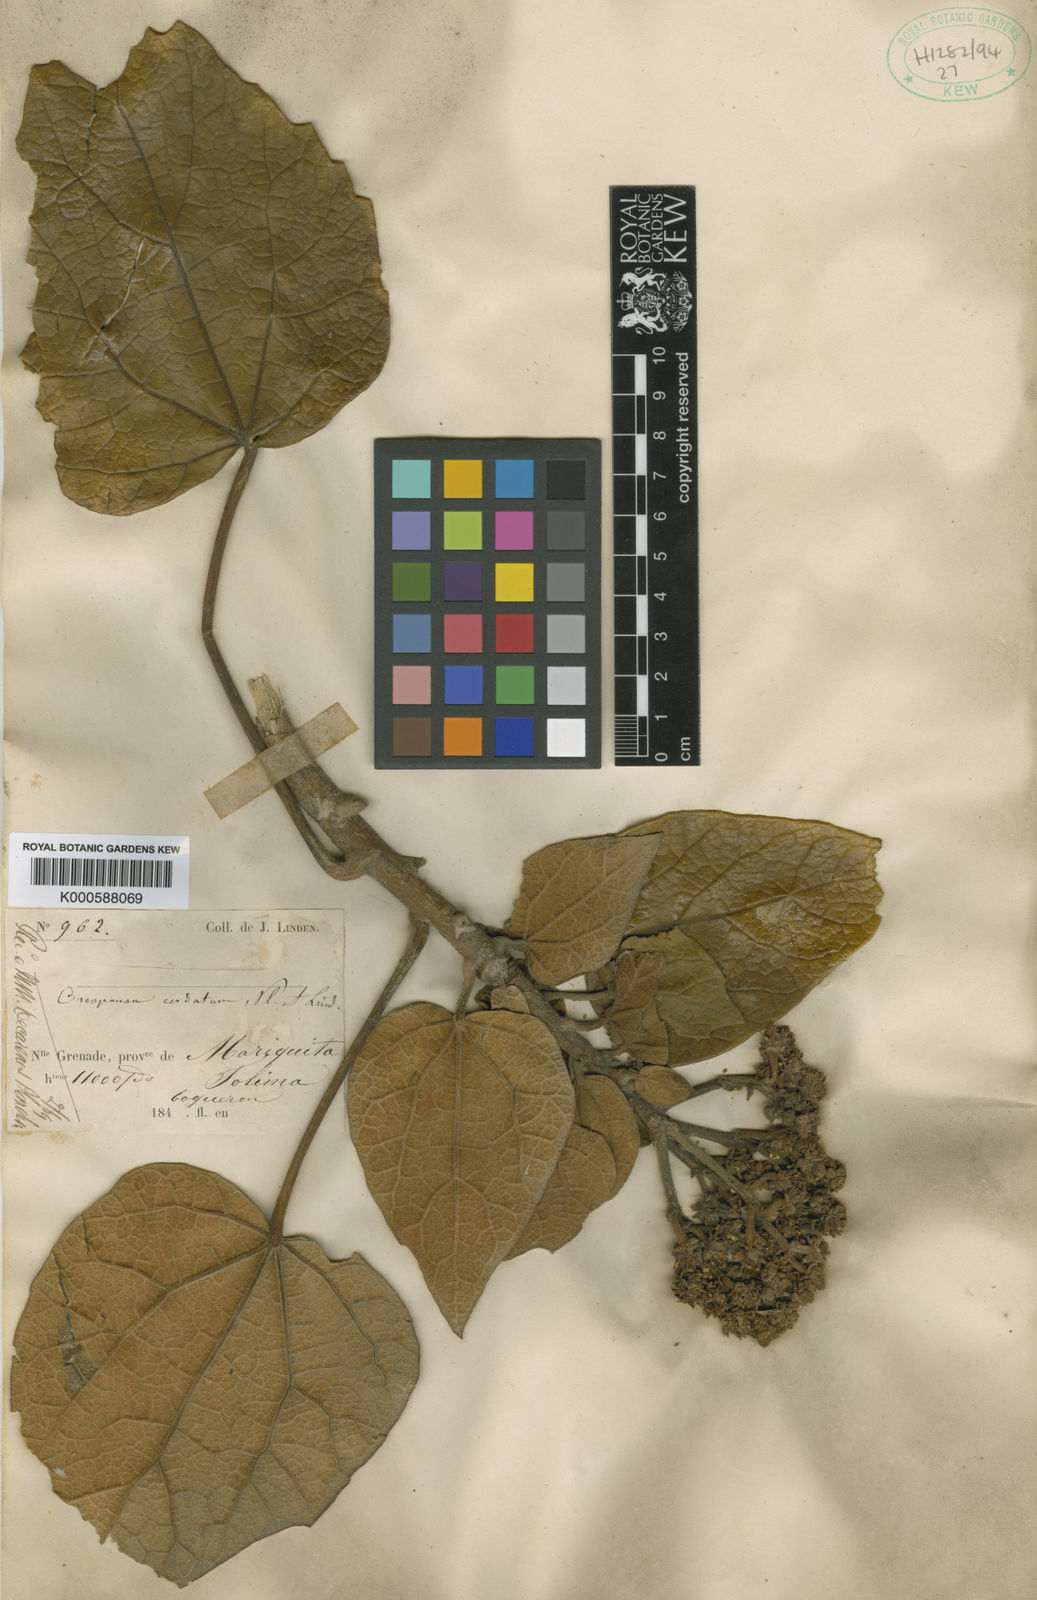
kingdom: Plantae
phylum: Tracheophyta
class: Magnoliopsida
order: Apiales
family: Araliaceae
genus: Oreopanax
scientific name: Oreopanax
